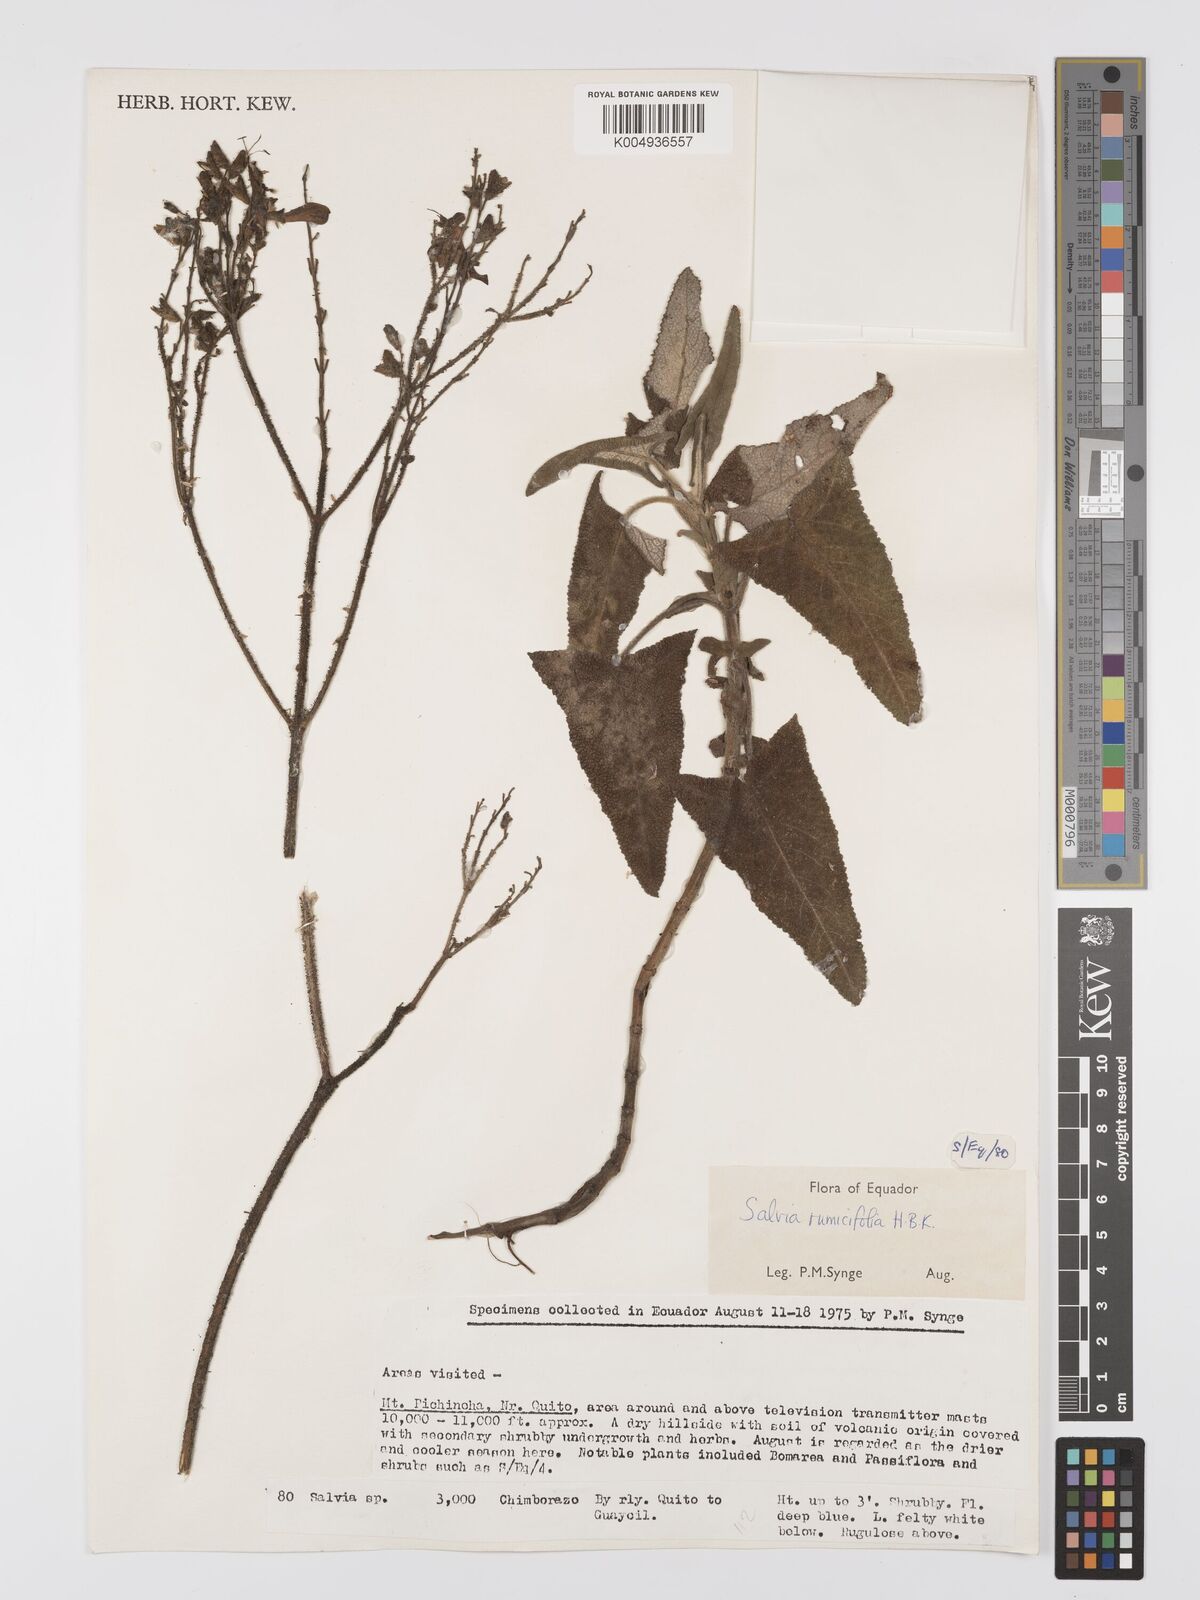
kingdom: Plantae
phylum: Tracheophyta
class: Magnoliopsida
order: Lamiales
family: Lamiaceae
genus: Salvia
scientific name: Salvia sagittata
